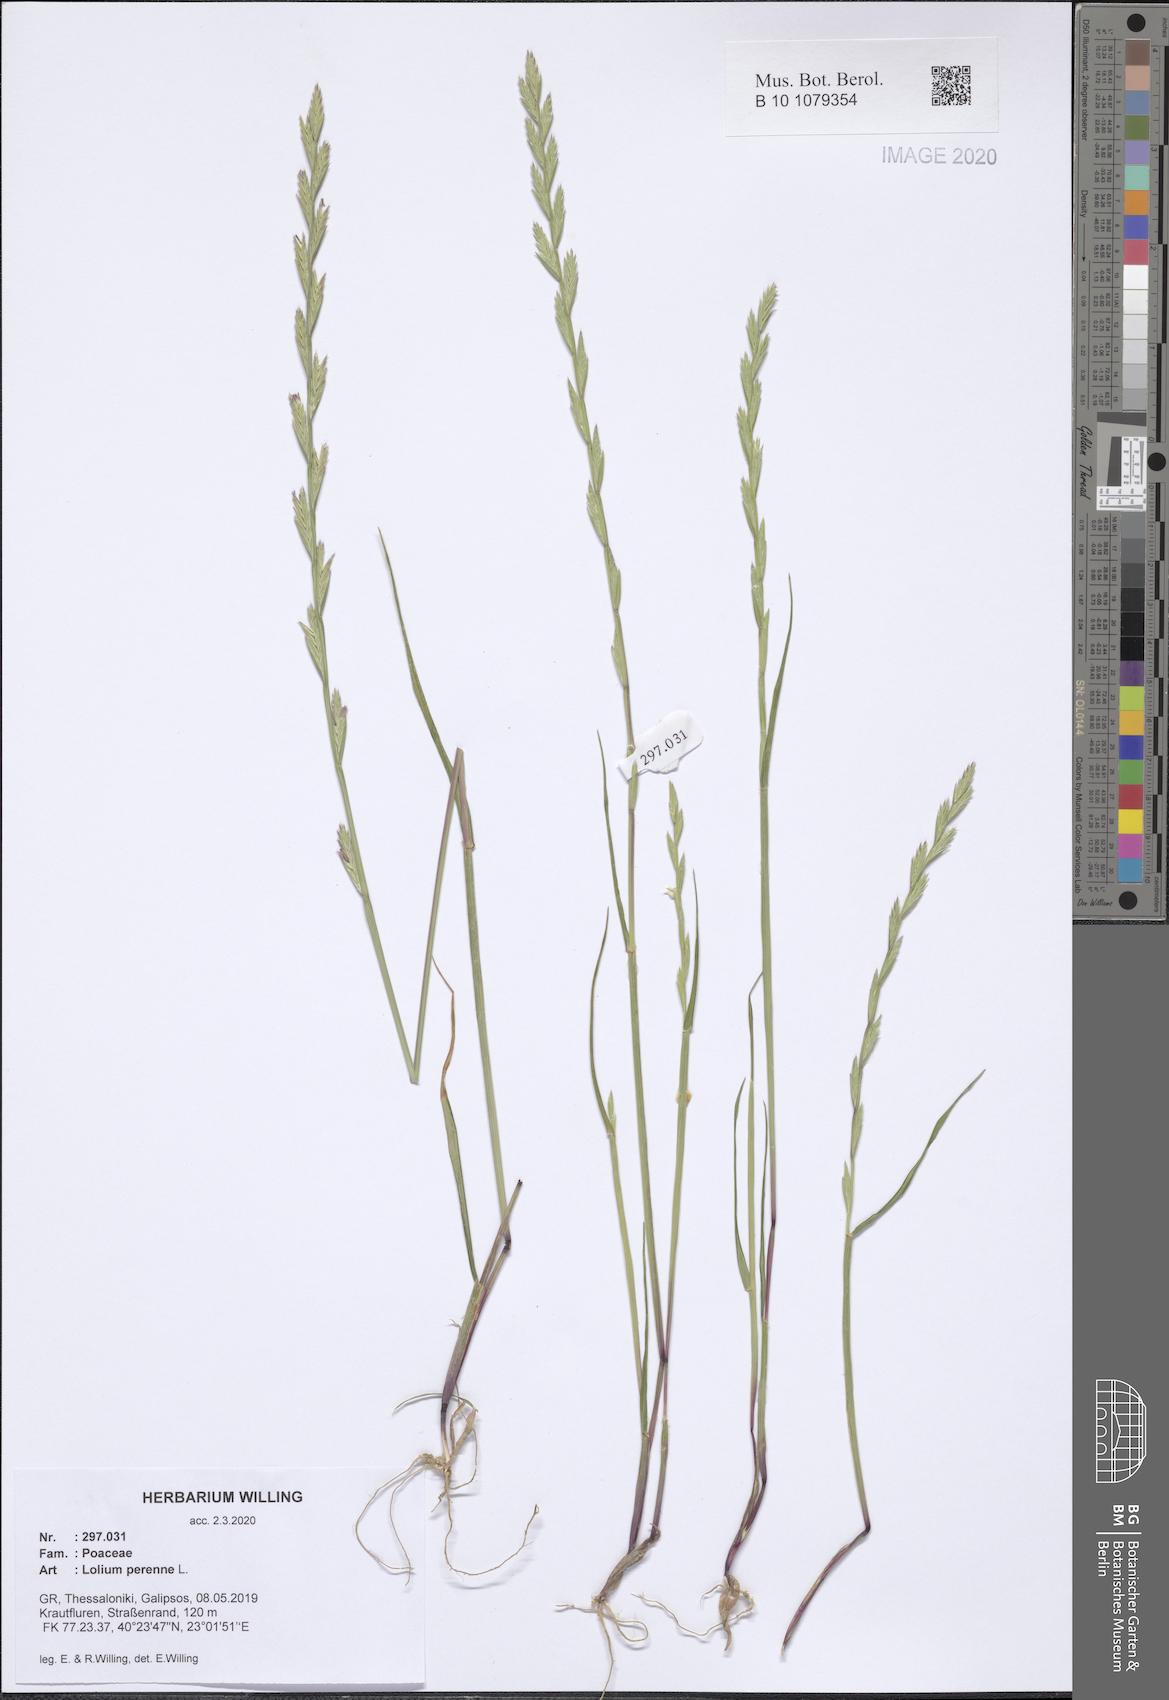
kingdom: Plantae
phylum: Tracheophyta
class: Liliopsida
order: Poales
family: Poaceae
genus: Lolium
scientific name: Lolium perenne
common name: Perennial ryegrass
